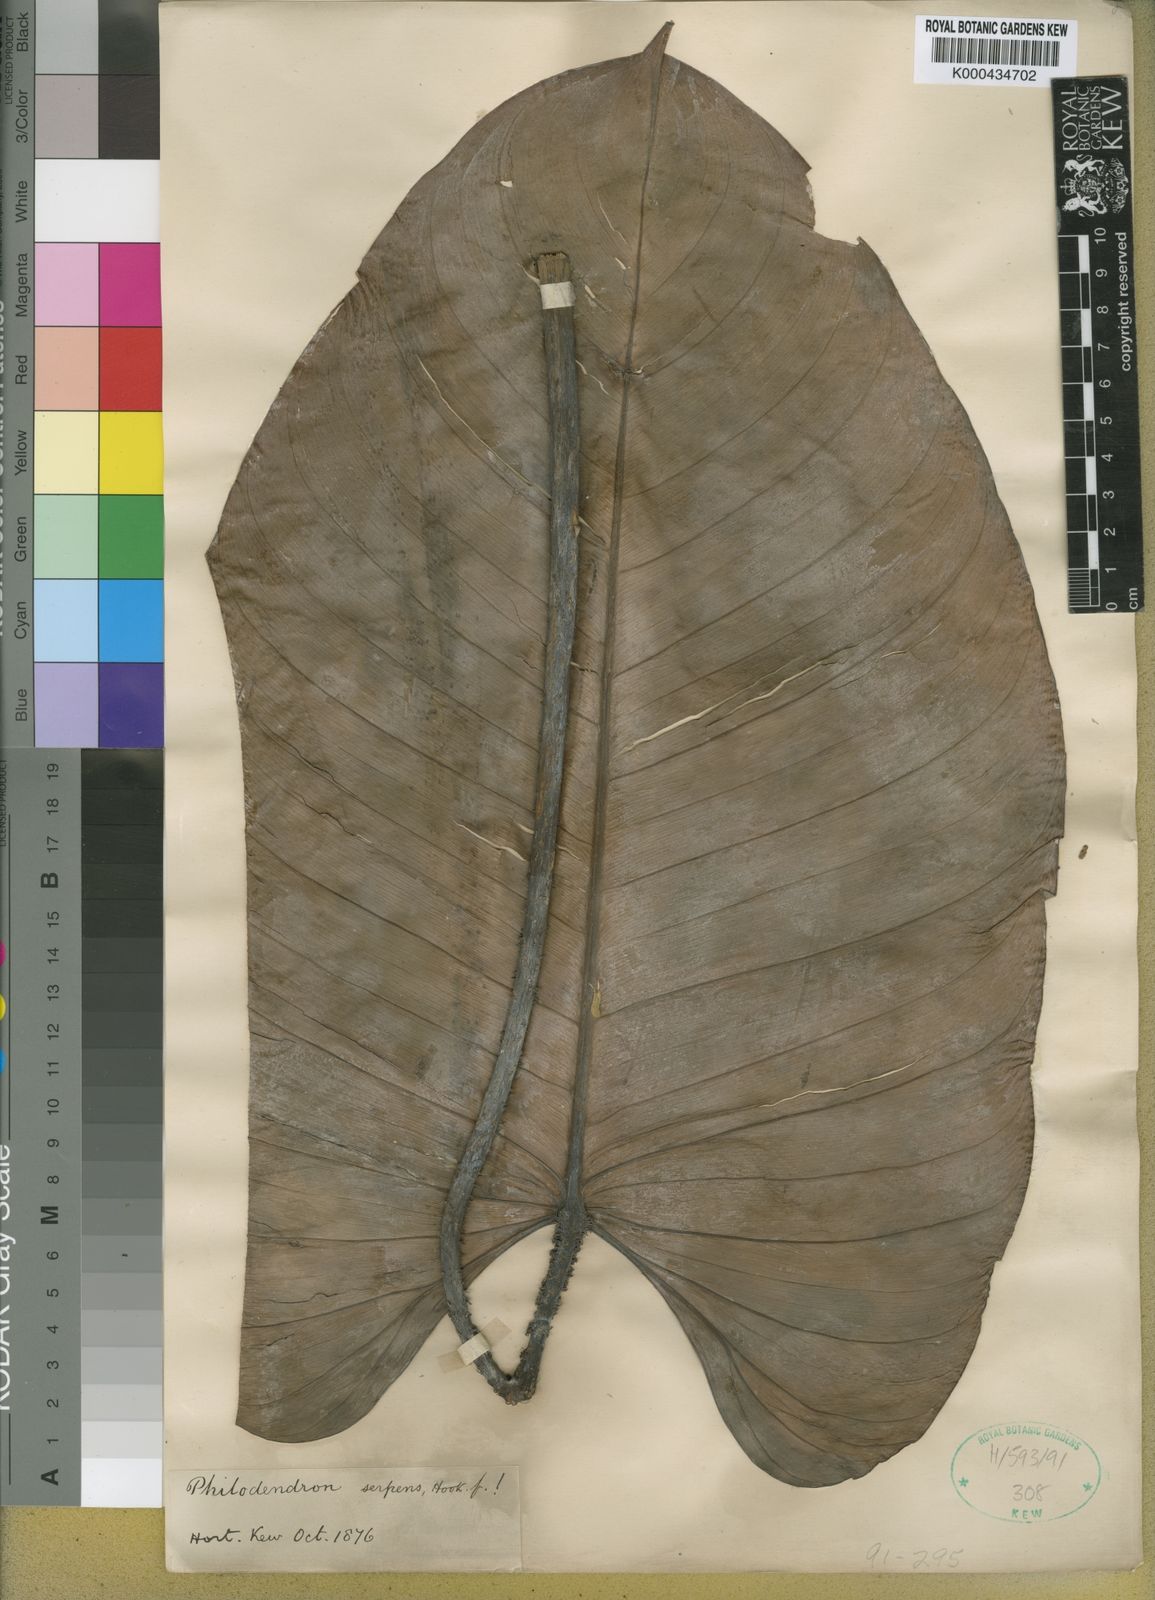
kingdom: Plantae
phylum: Tracheophyta
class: Liliopsida
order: Alismatales
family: Araceae
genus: Philodendron
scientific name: Philodendron serpens
